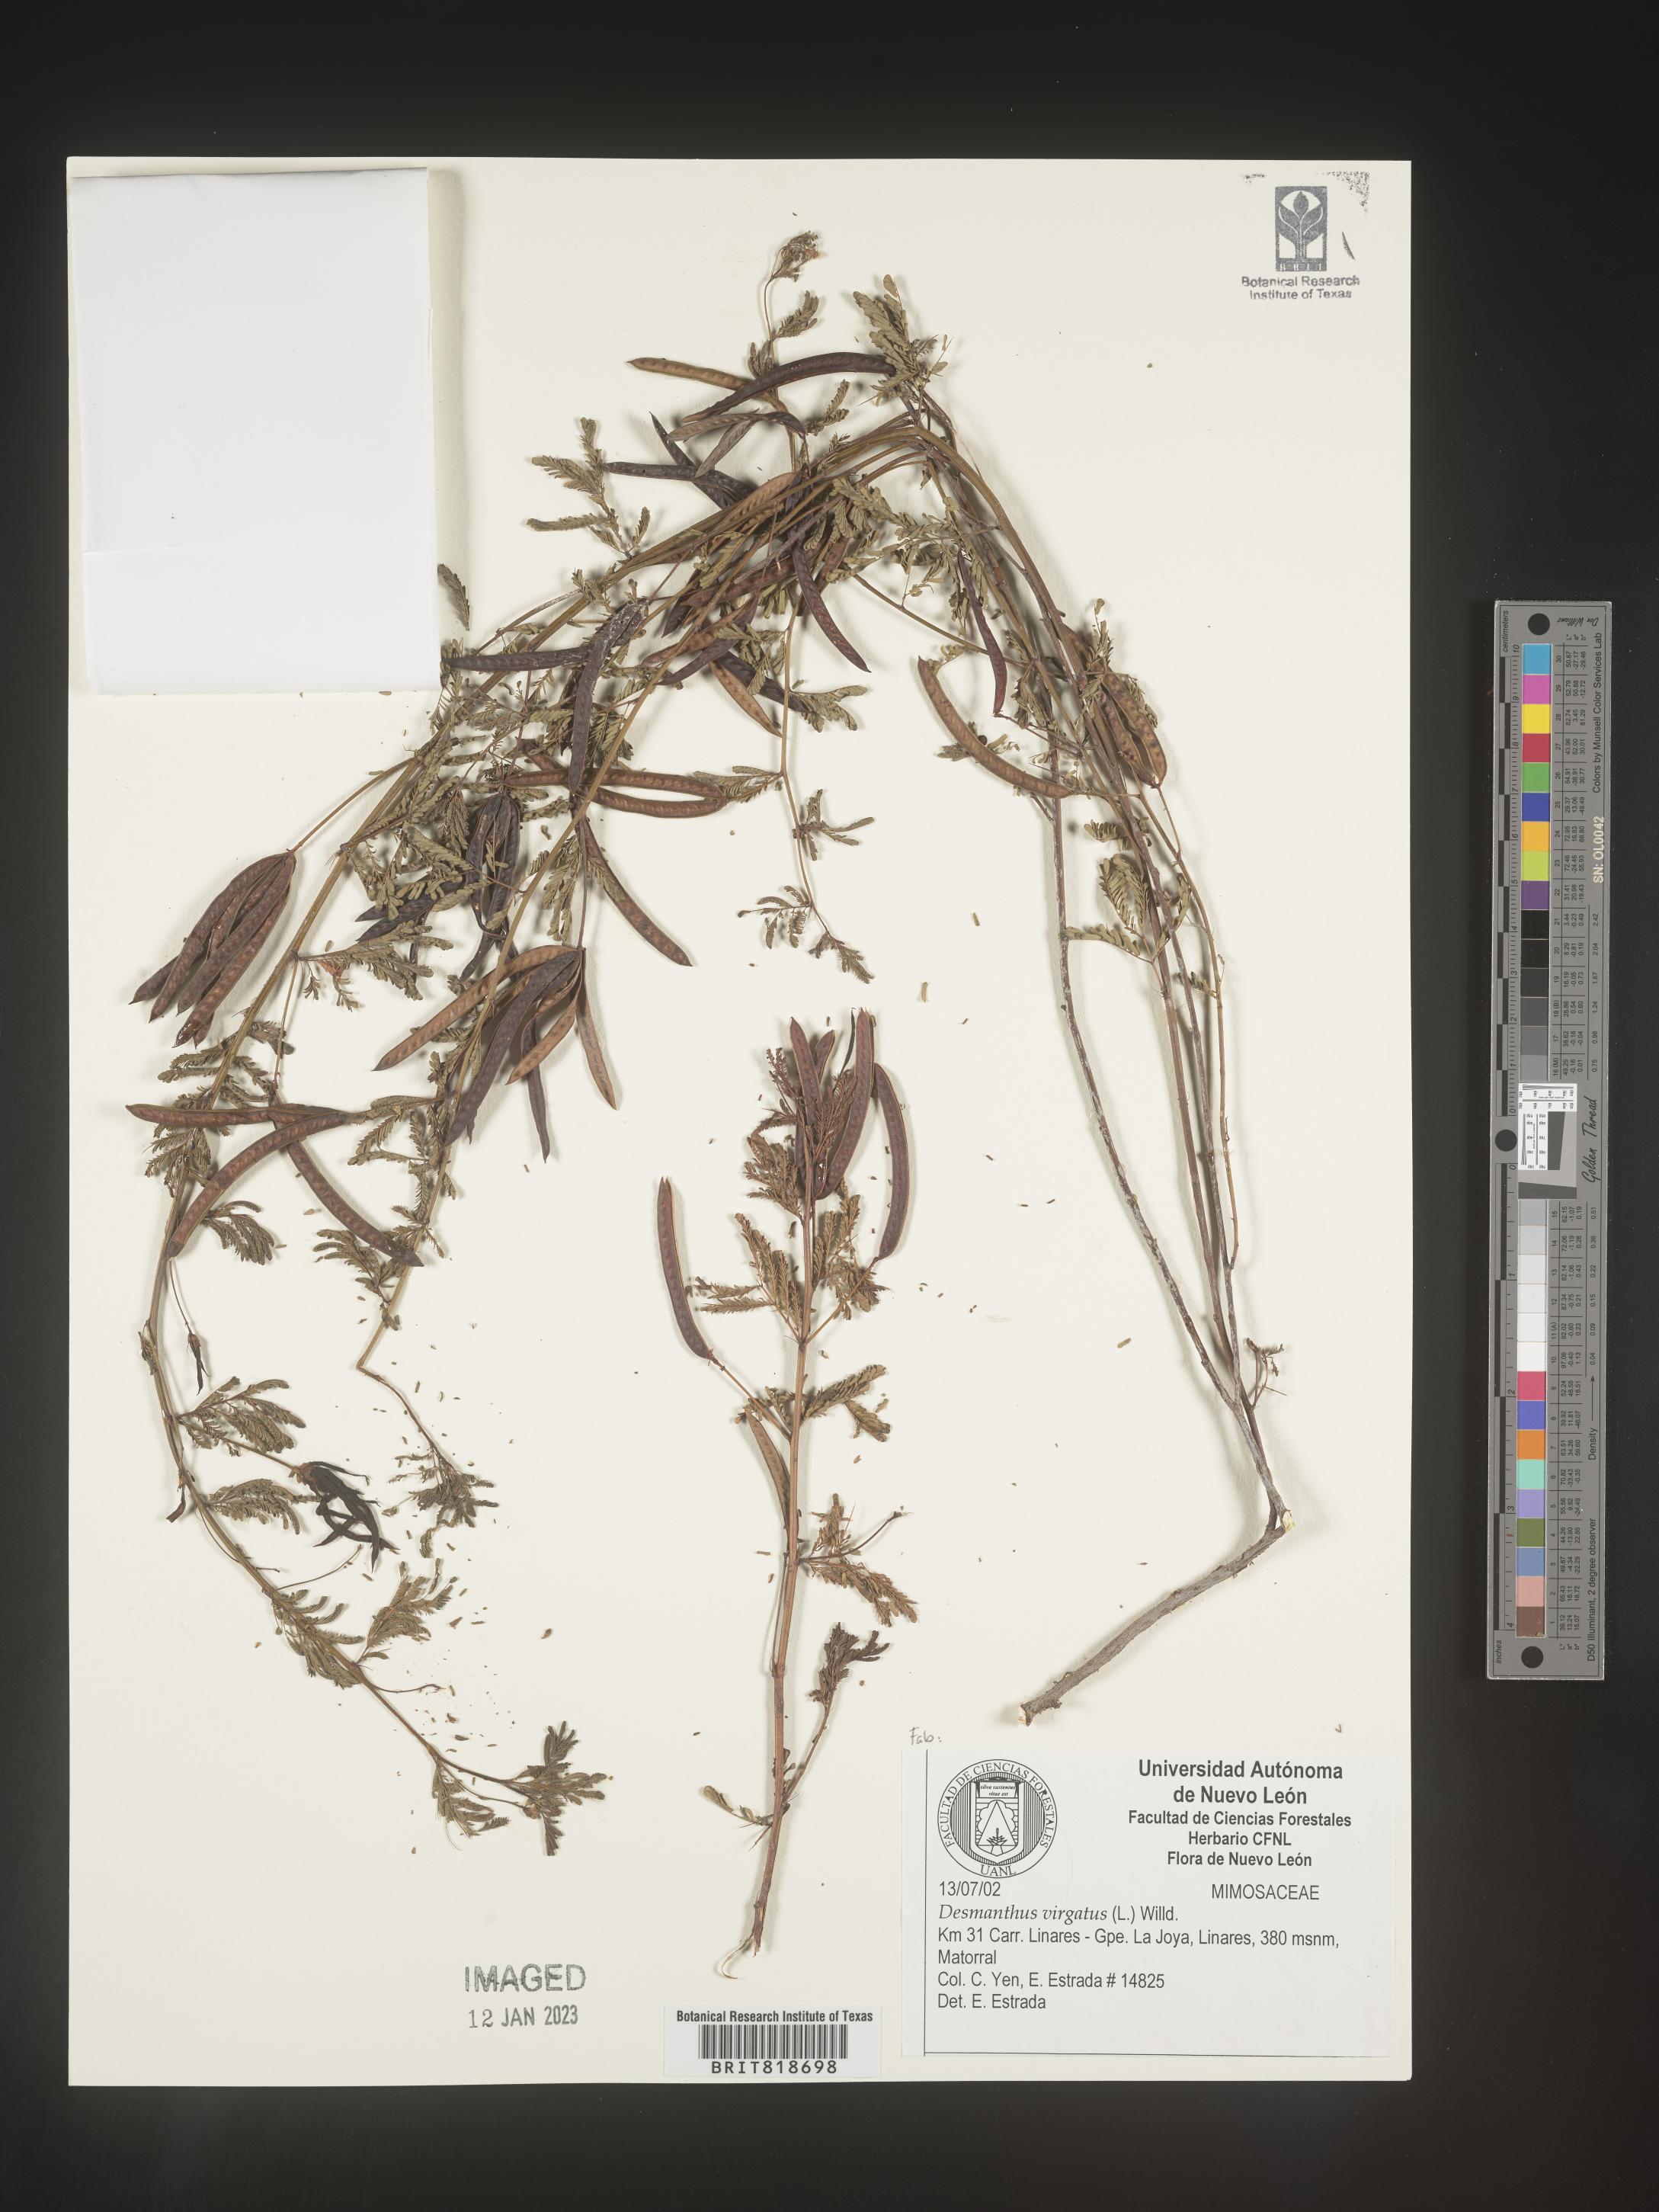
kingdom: Plantae
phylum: Tracheophyta
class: Magnoliopsida
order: Fabales
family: Fabaceae
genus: Desmanthus
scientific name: Desmanthus
